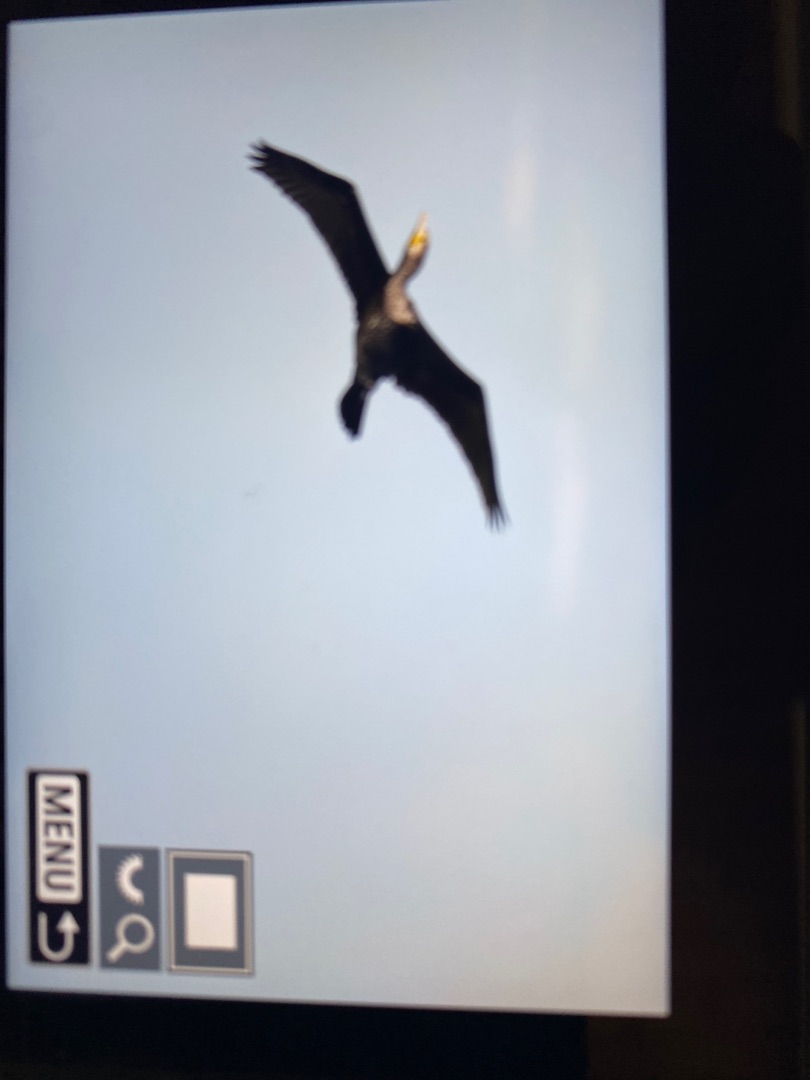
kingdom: Animalia
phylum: Chordata
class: Aves
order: Suliformes
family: Phalacrocoracidae
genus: Phalacrocorax
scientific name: Phalacrocorax carbo
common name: Skarv
